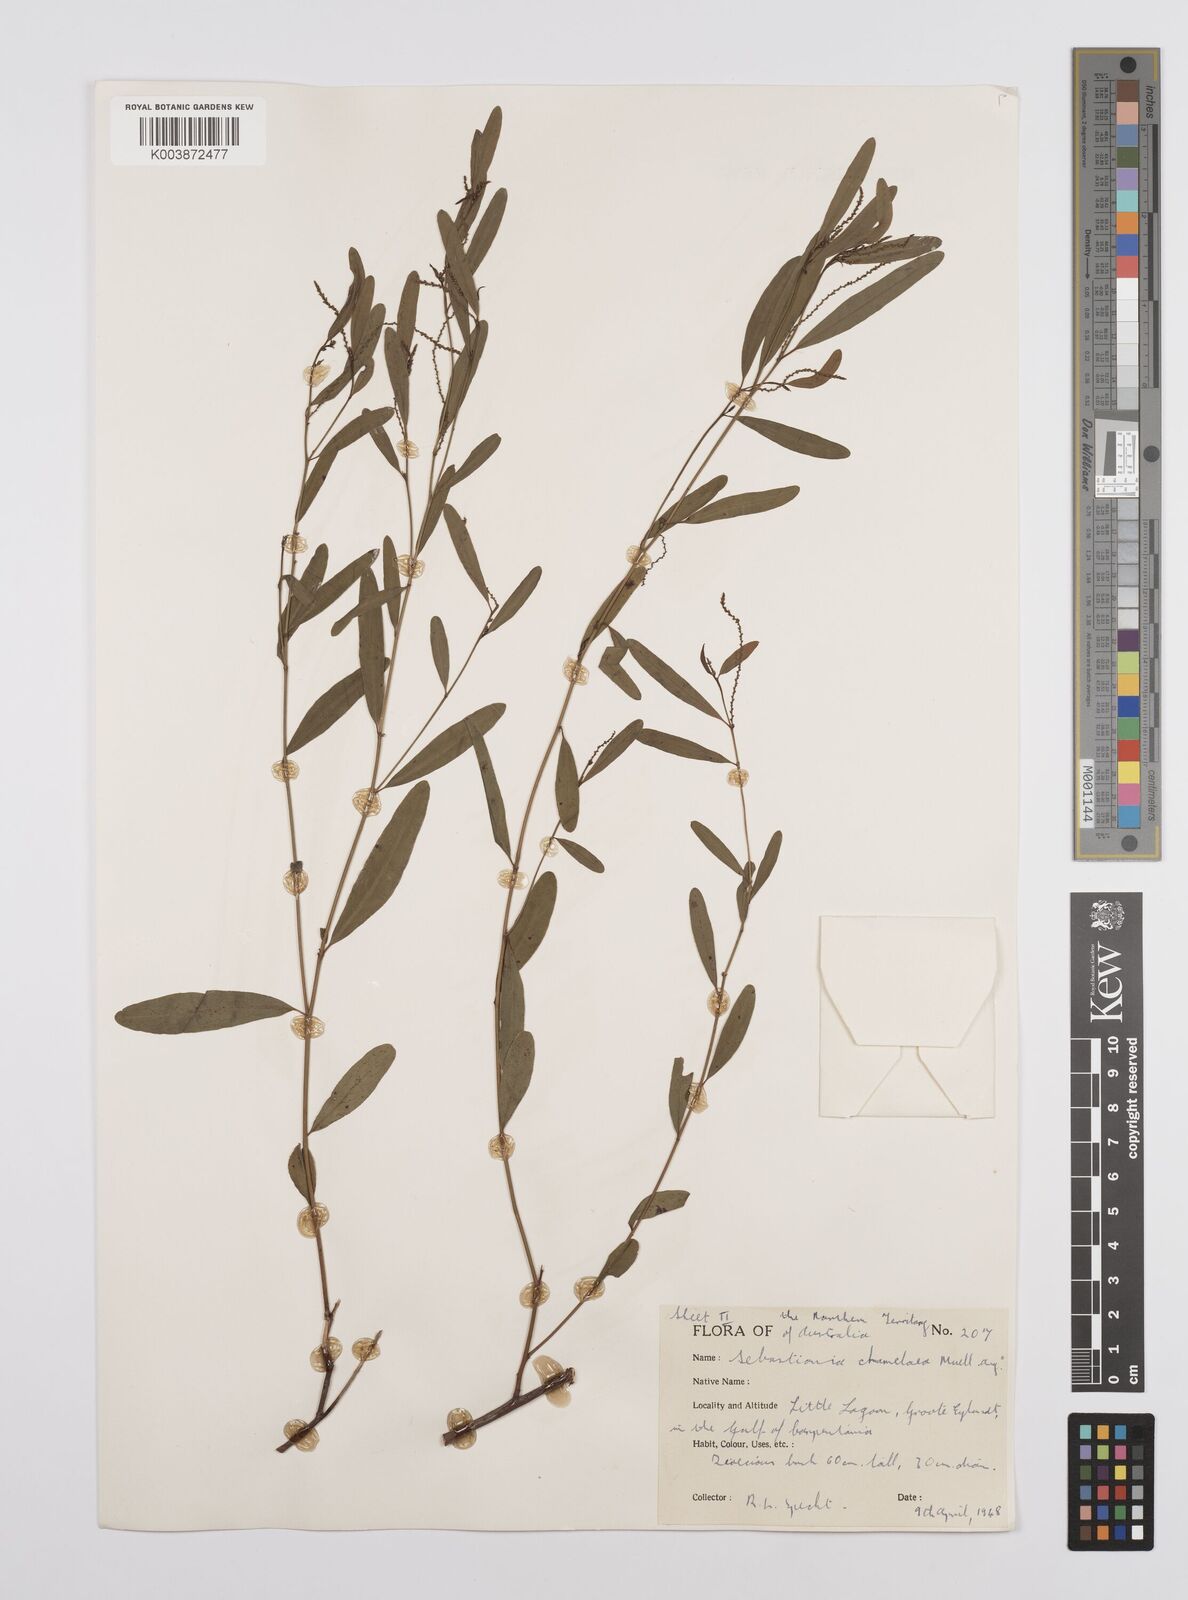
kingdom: Plantae
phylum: Tracheophyta
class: Magnoliopsida
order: Malpighiales
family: Euphorbiaceae
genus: Microstachys
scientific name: Microstachys chamaelea
